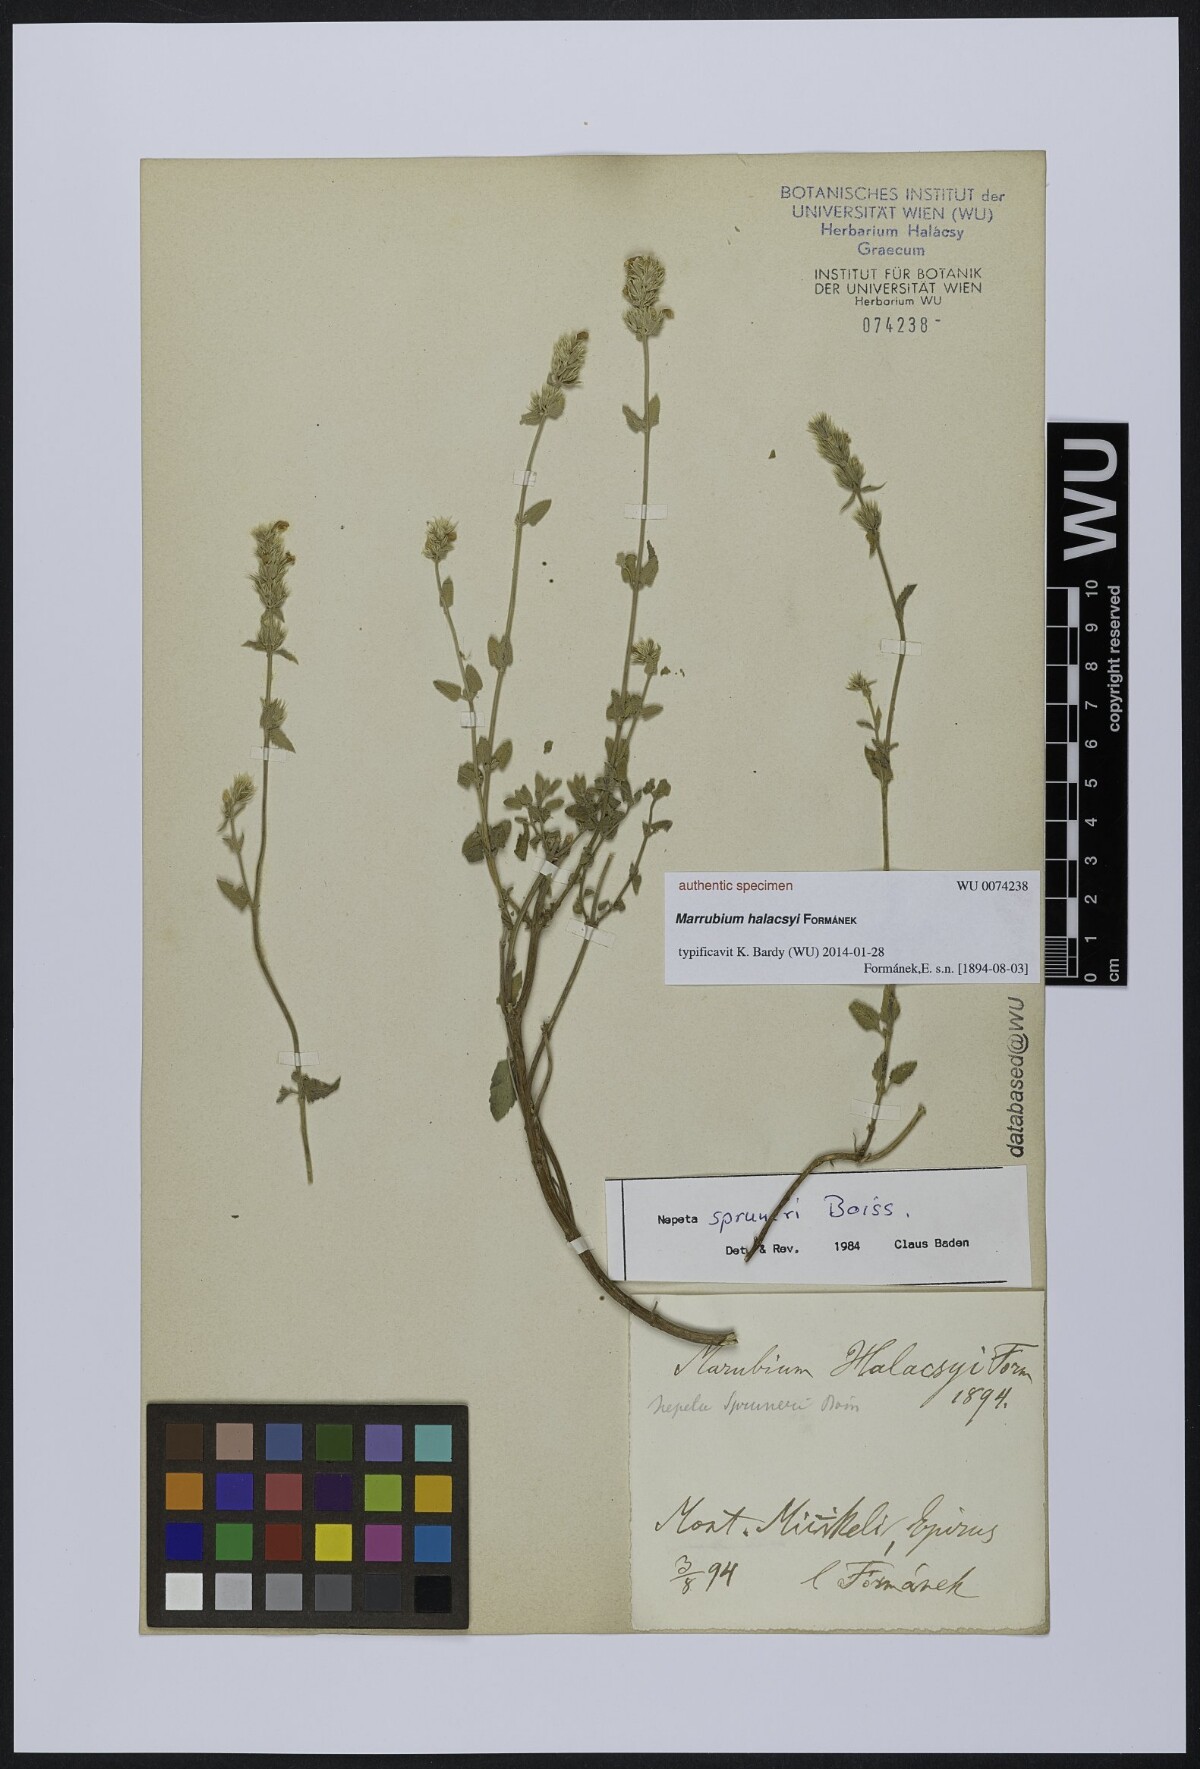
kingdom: Plantae
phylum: Tracheophyta
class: Magnoliopsida
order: Lamiales
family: Lamiaceae
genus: Marrubium
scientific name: Marrubium
